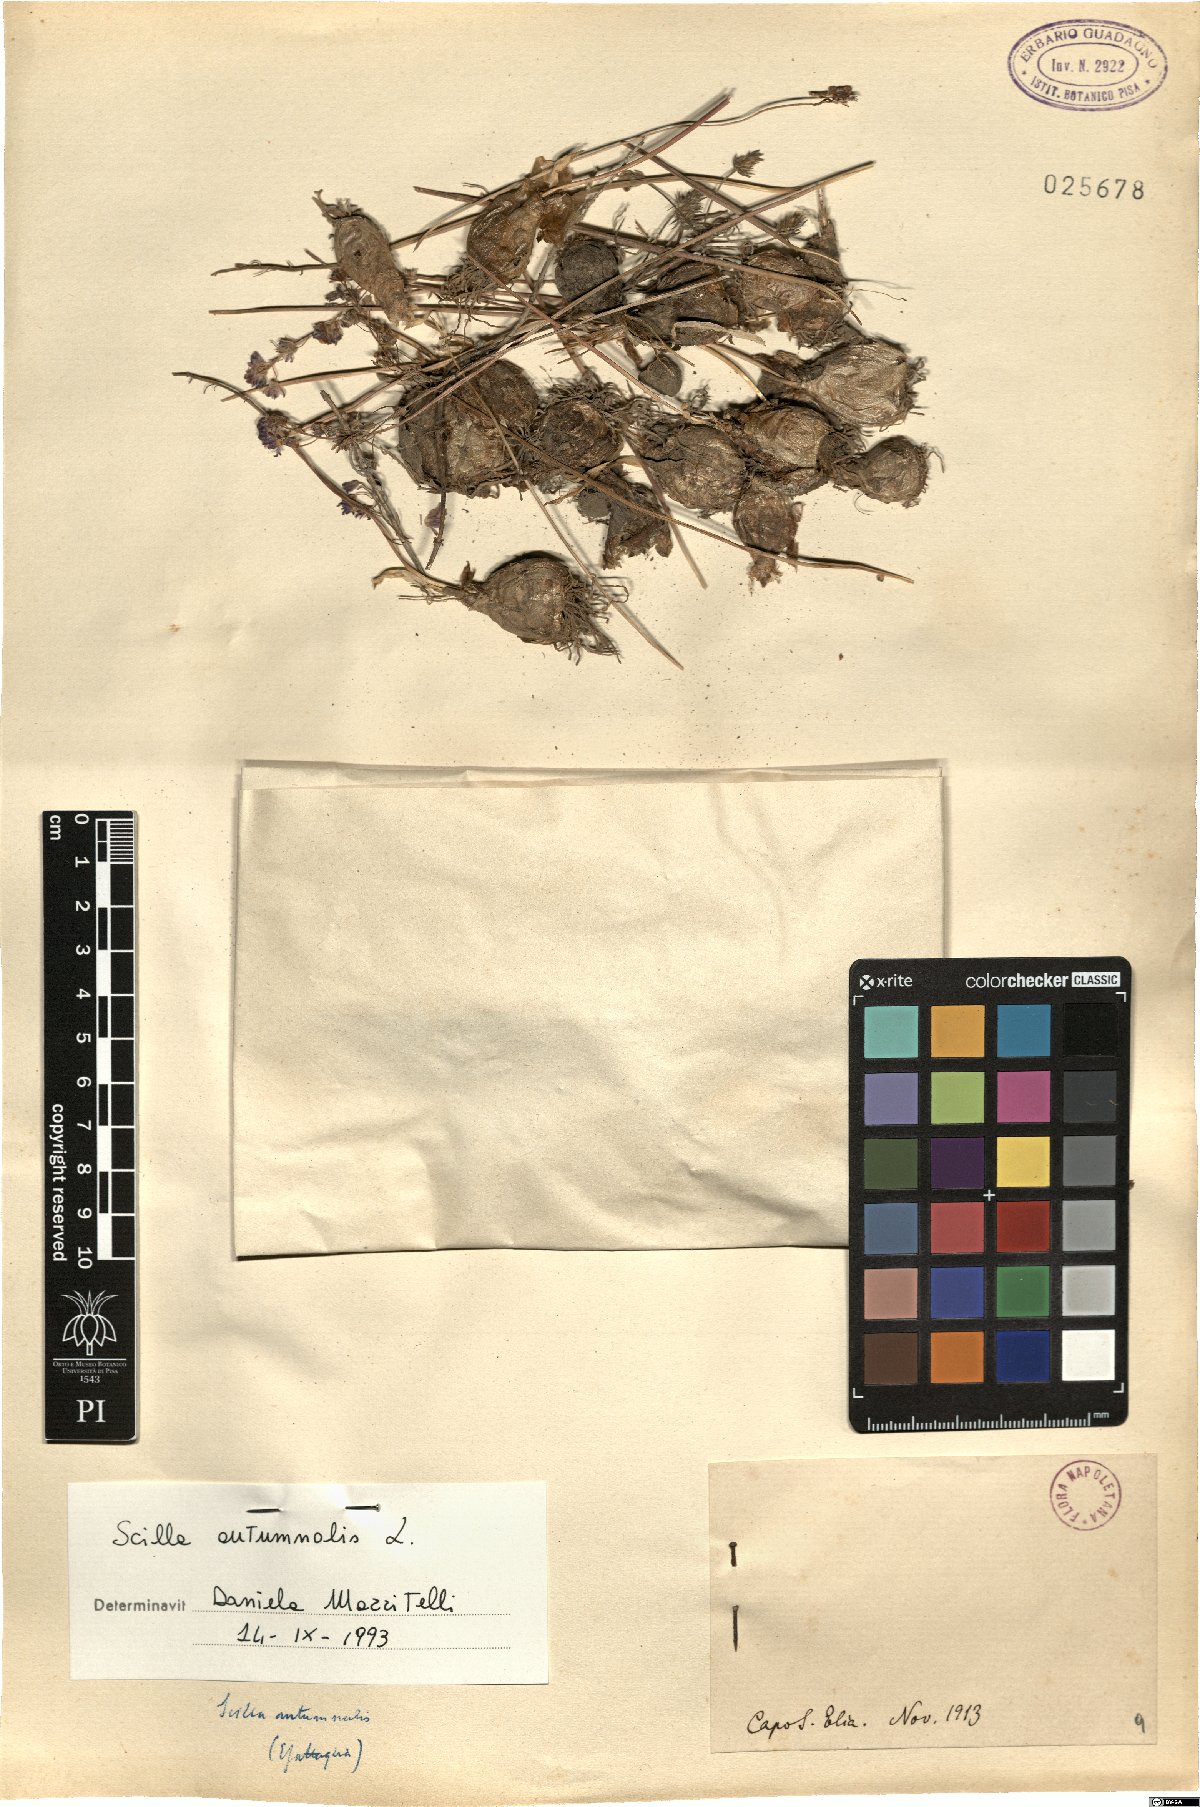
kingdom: Plantae
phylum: Tracheophyta
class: Liliopsida
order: Asparagales
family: Asparagaceae
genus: Prospero
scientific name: Prospero autumnale
